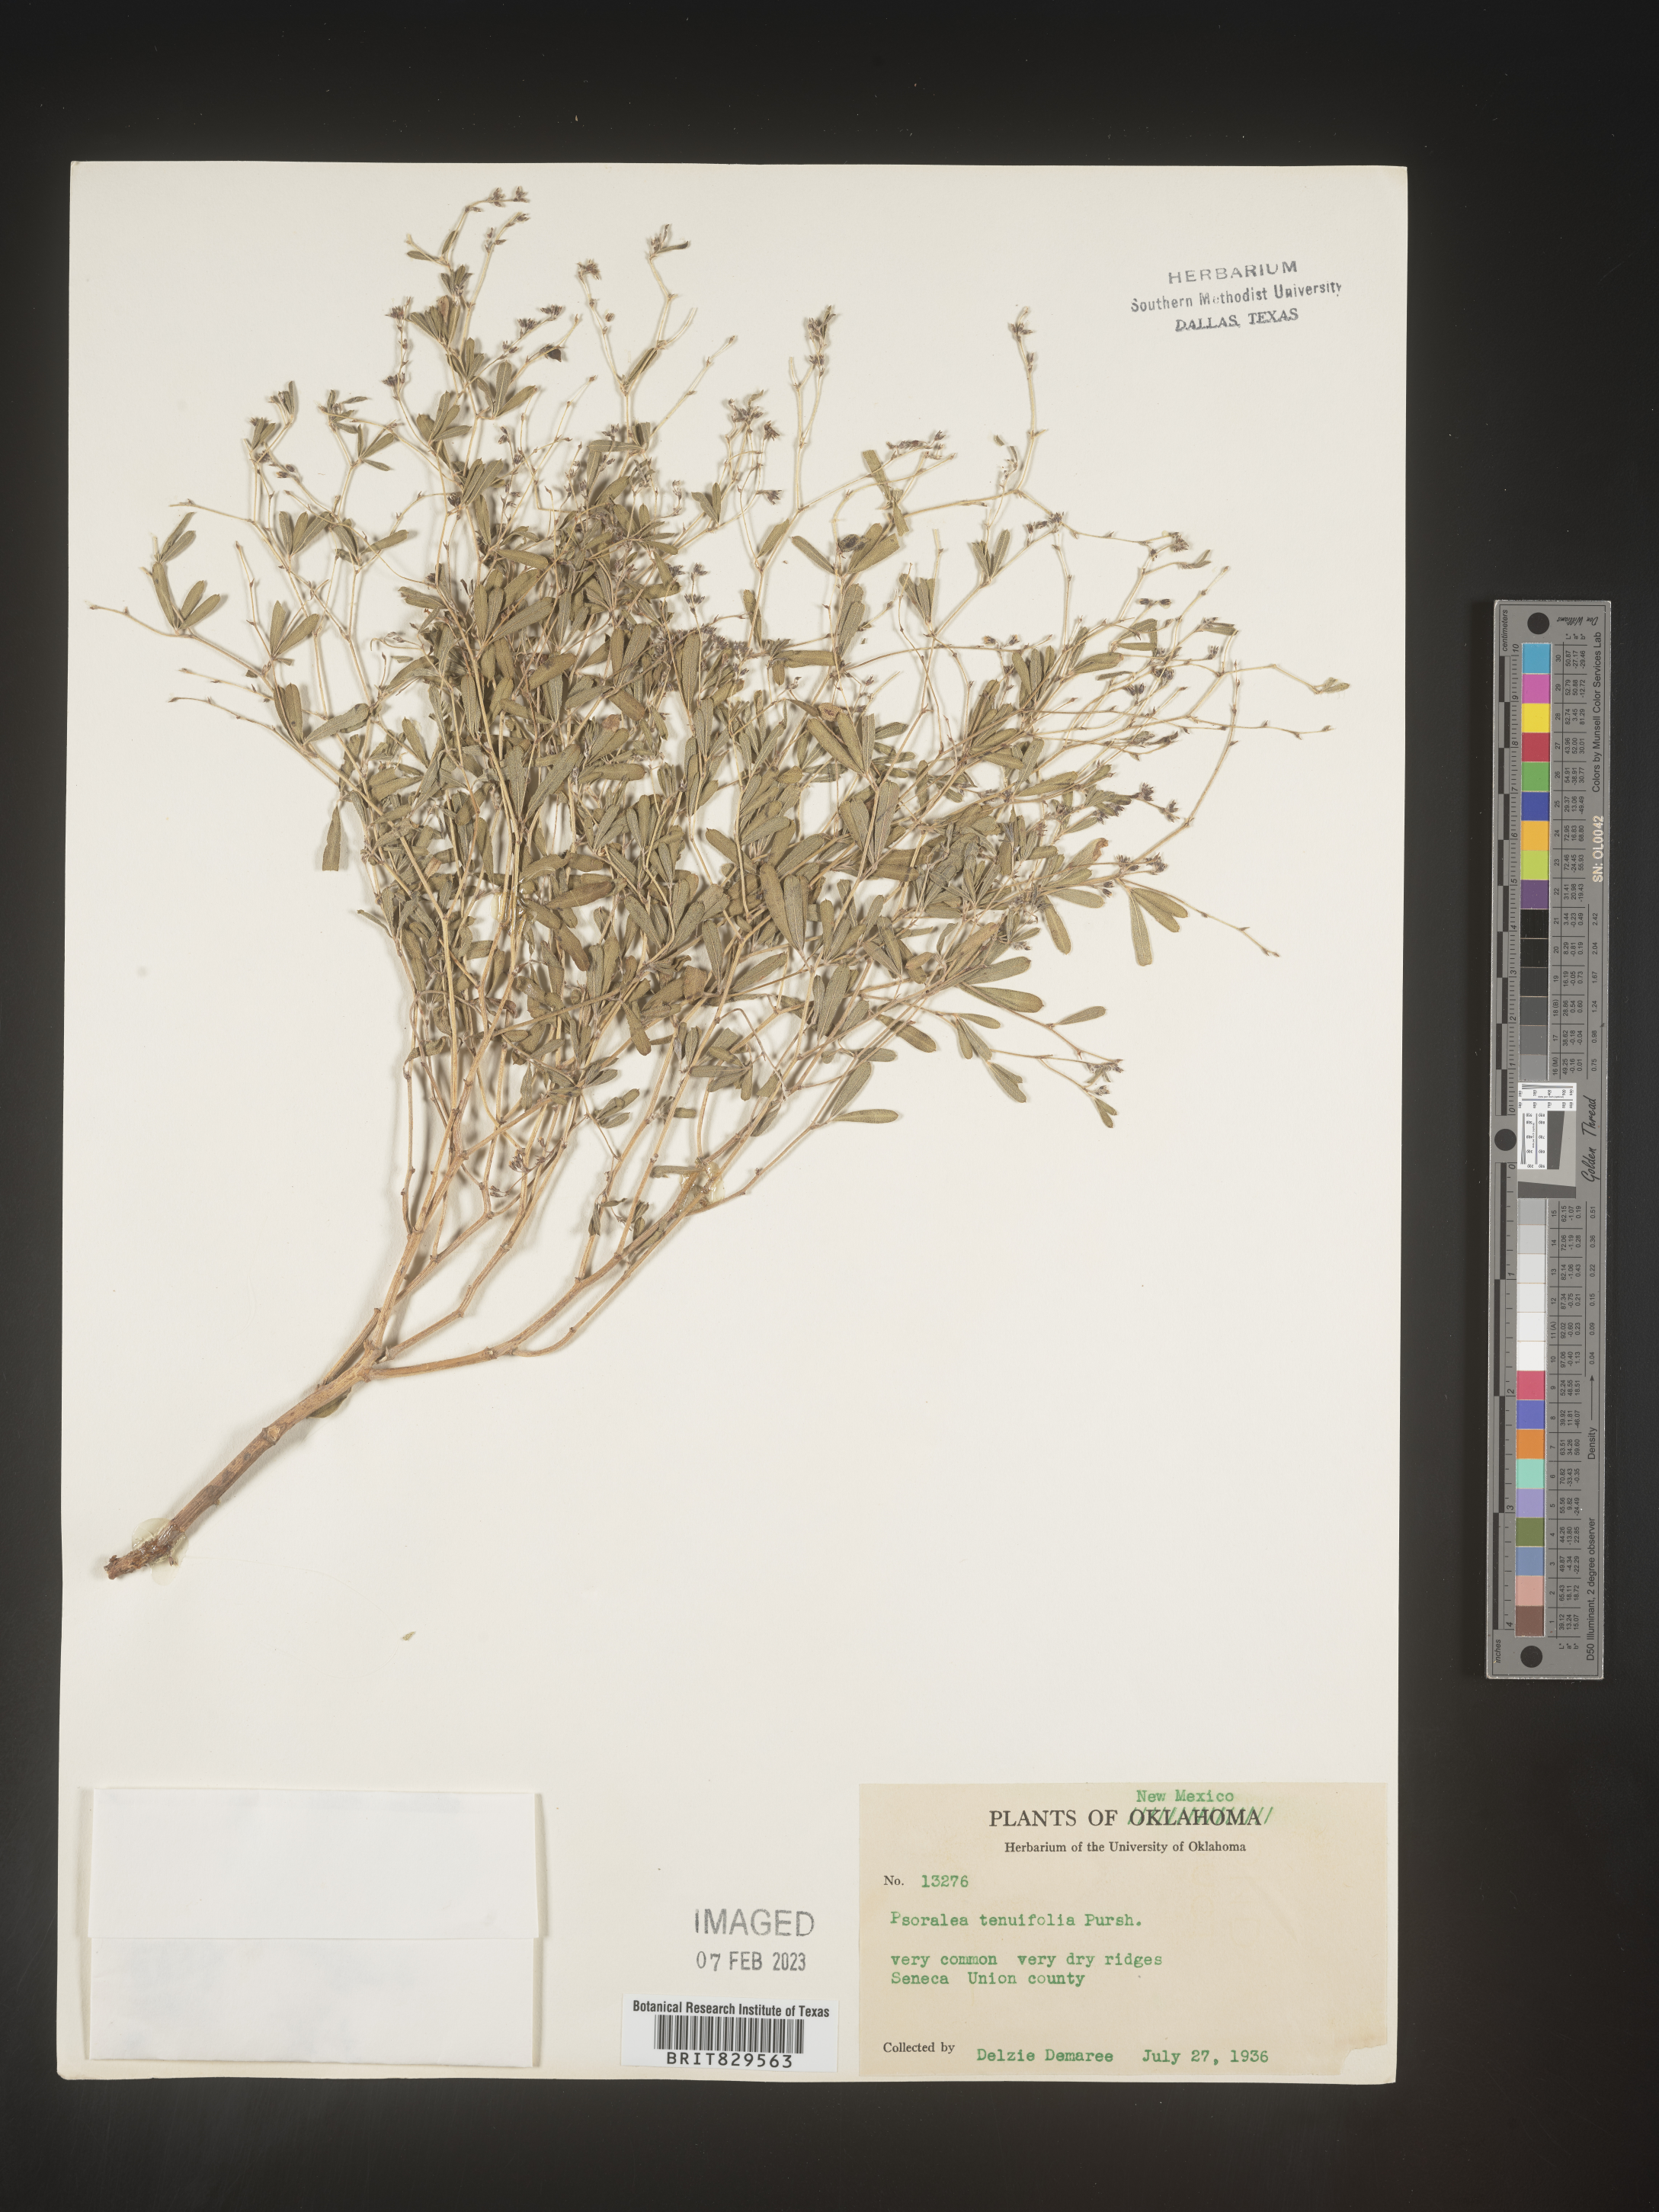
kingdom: Plantae
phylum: Tracheophyta
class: Magnoliopsida
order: Fabales
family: Fabaceae
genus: Pediomelum
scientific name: Pediomelum tenuiflorum
